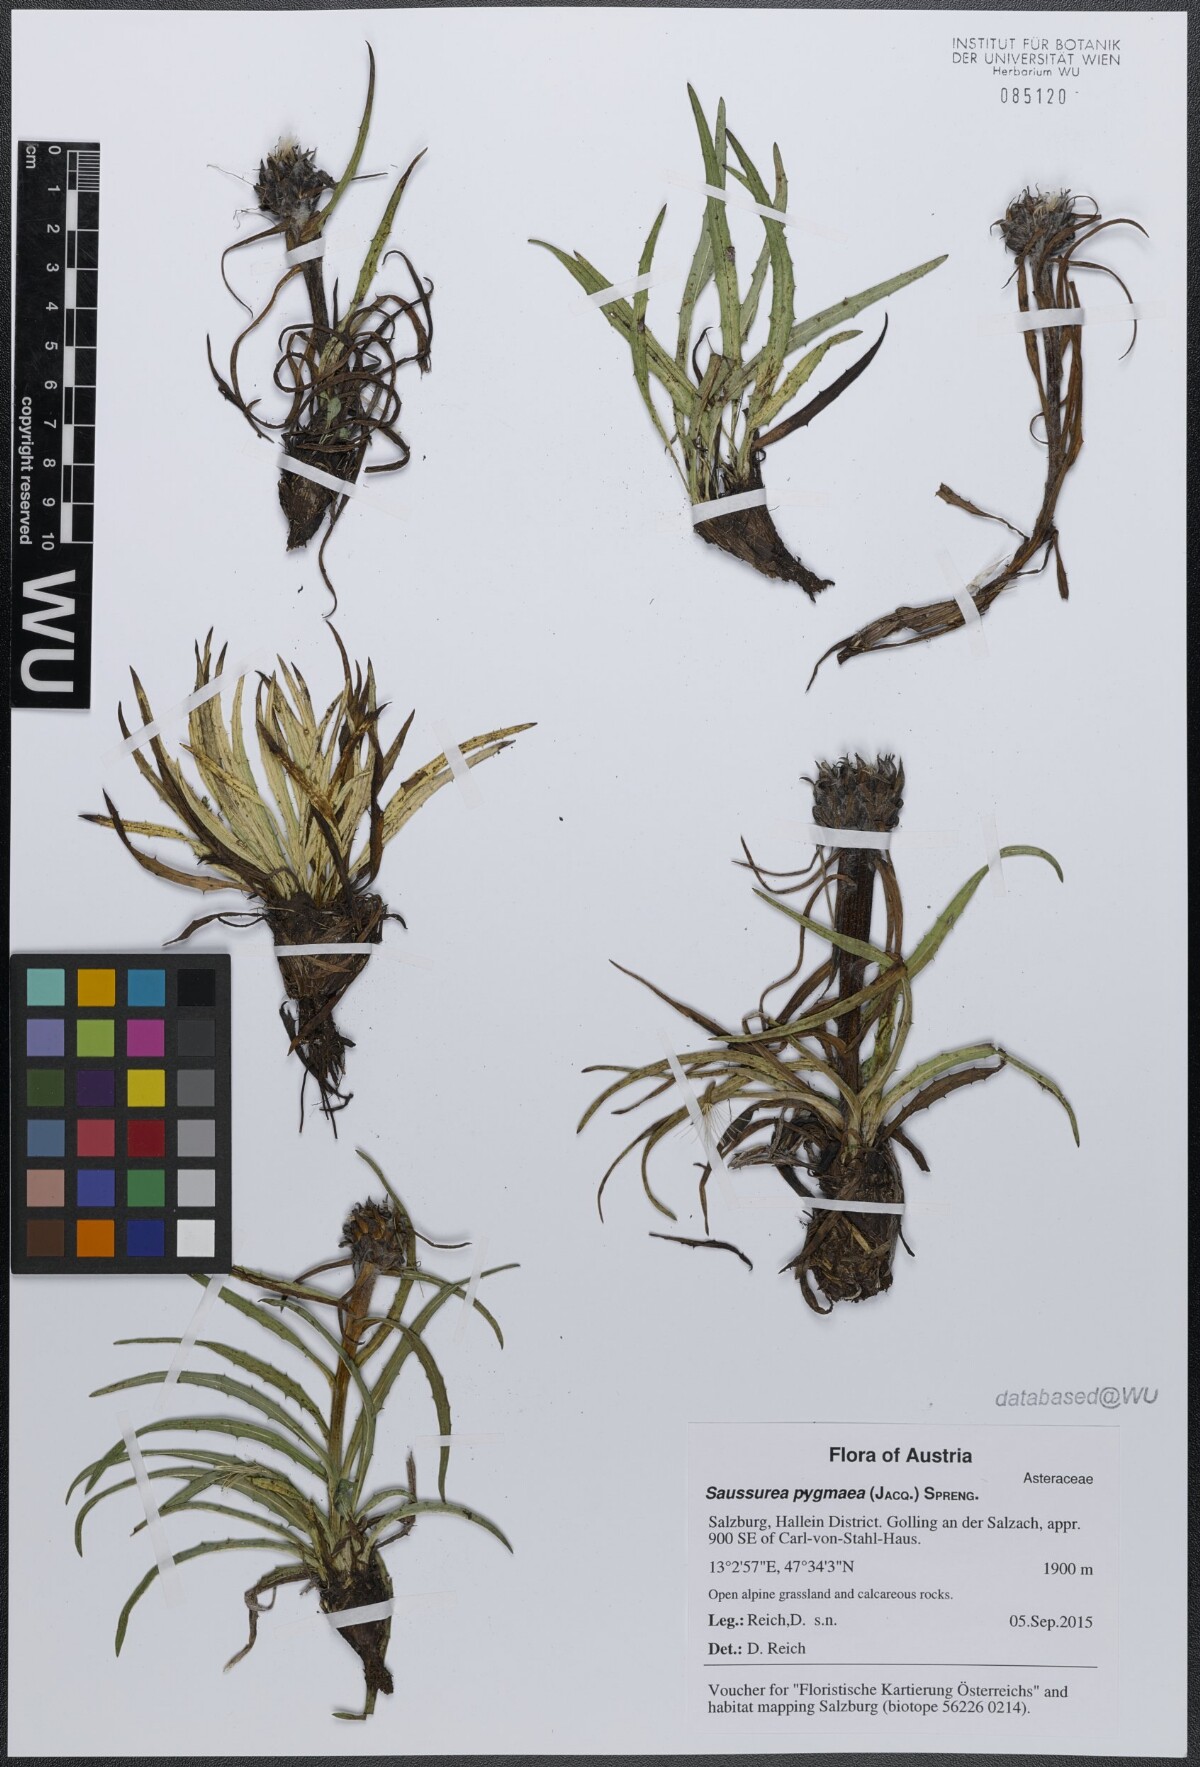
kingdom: Plantae
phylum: Tracheophyta
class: Magnoliopsida
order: Asterales
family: Asteraceae
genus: Saussurea
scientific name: Saussurea pygmaea
